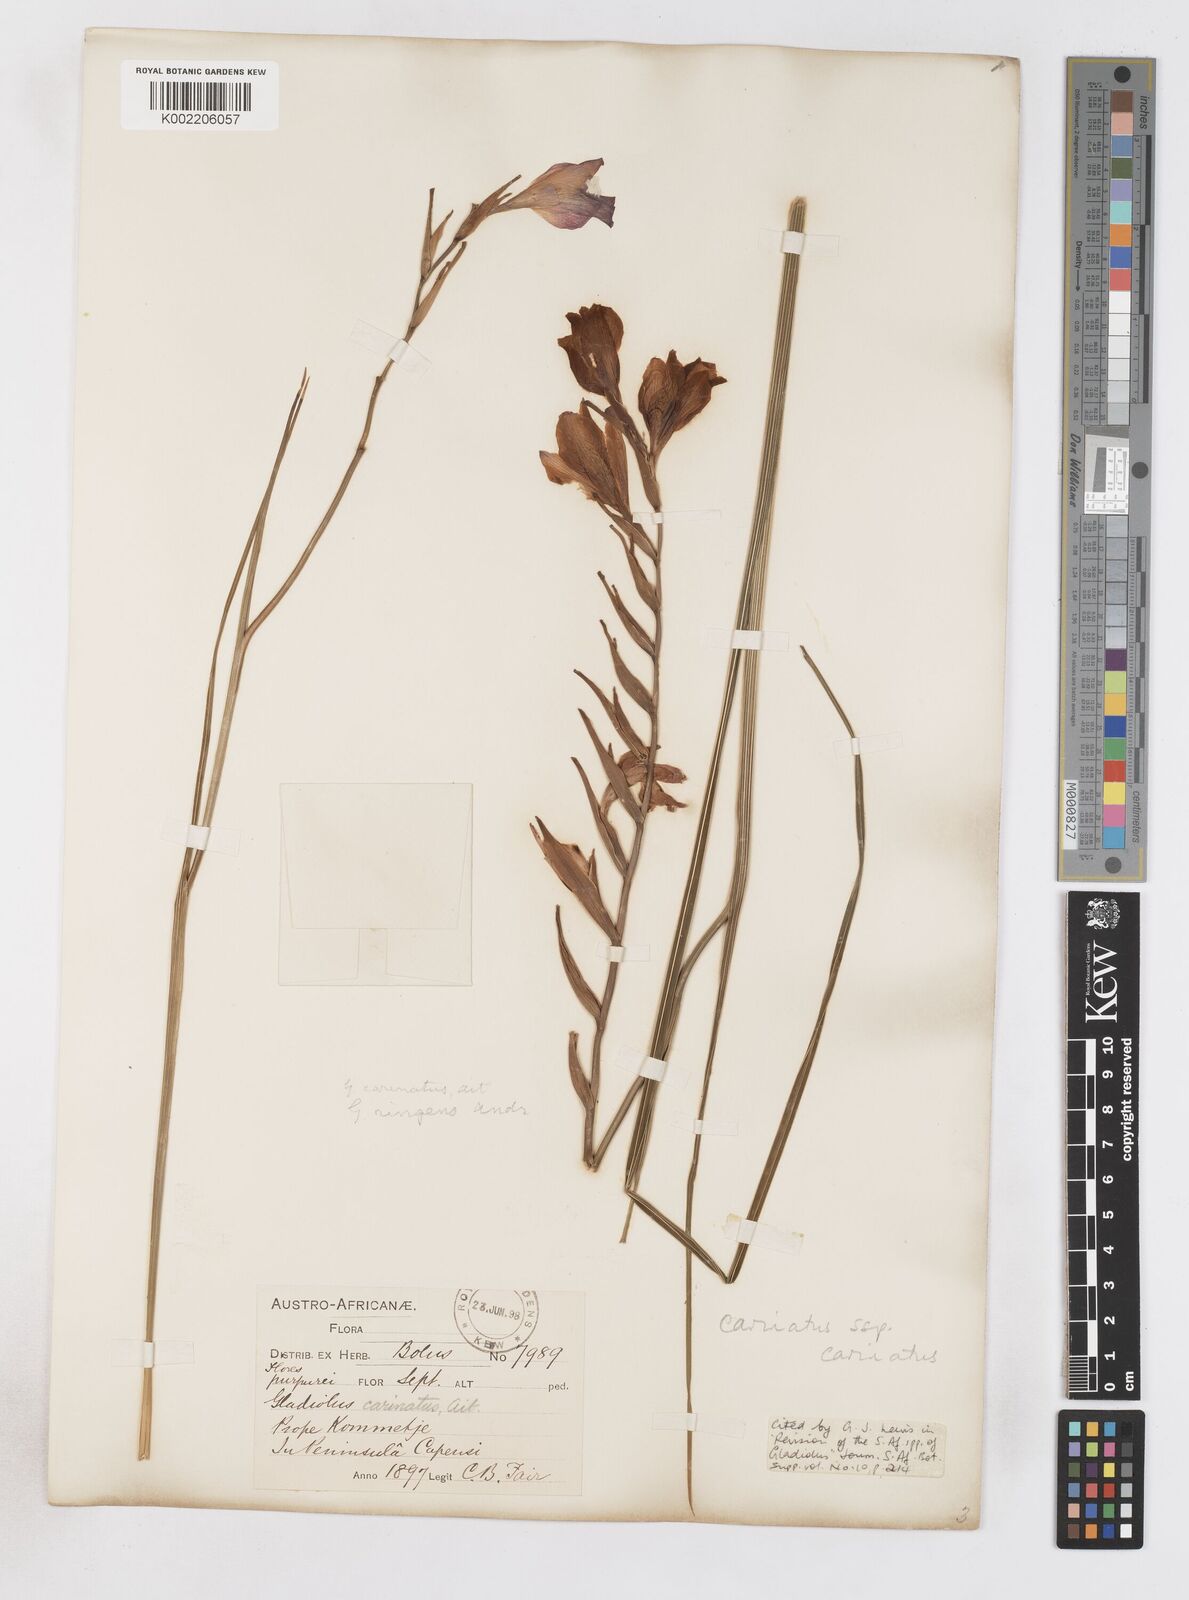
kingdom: Plantae
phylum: Tracheophyta
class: Liliopsida
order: Asparagales
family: Iridaceae
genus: Gladiolus
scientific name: Gladiolus carinatus
